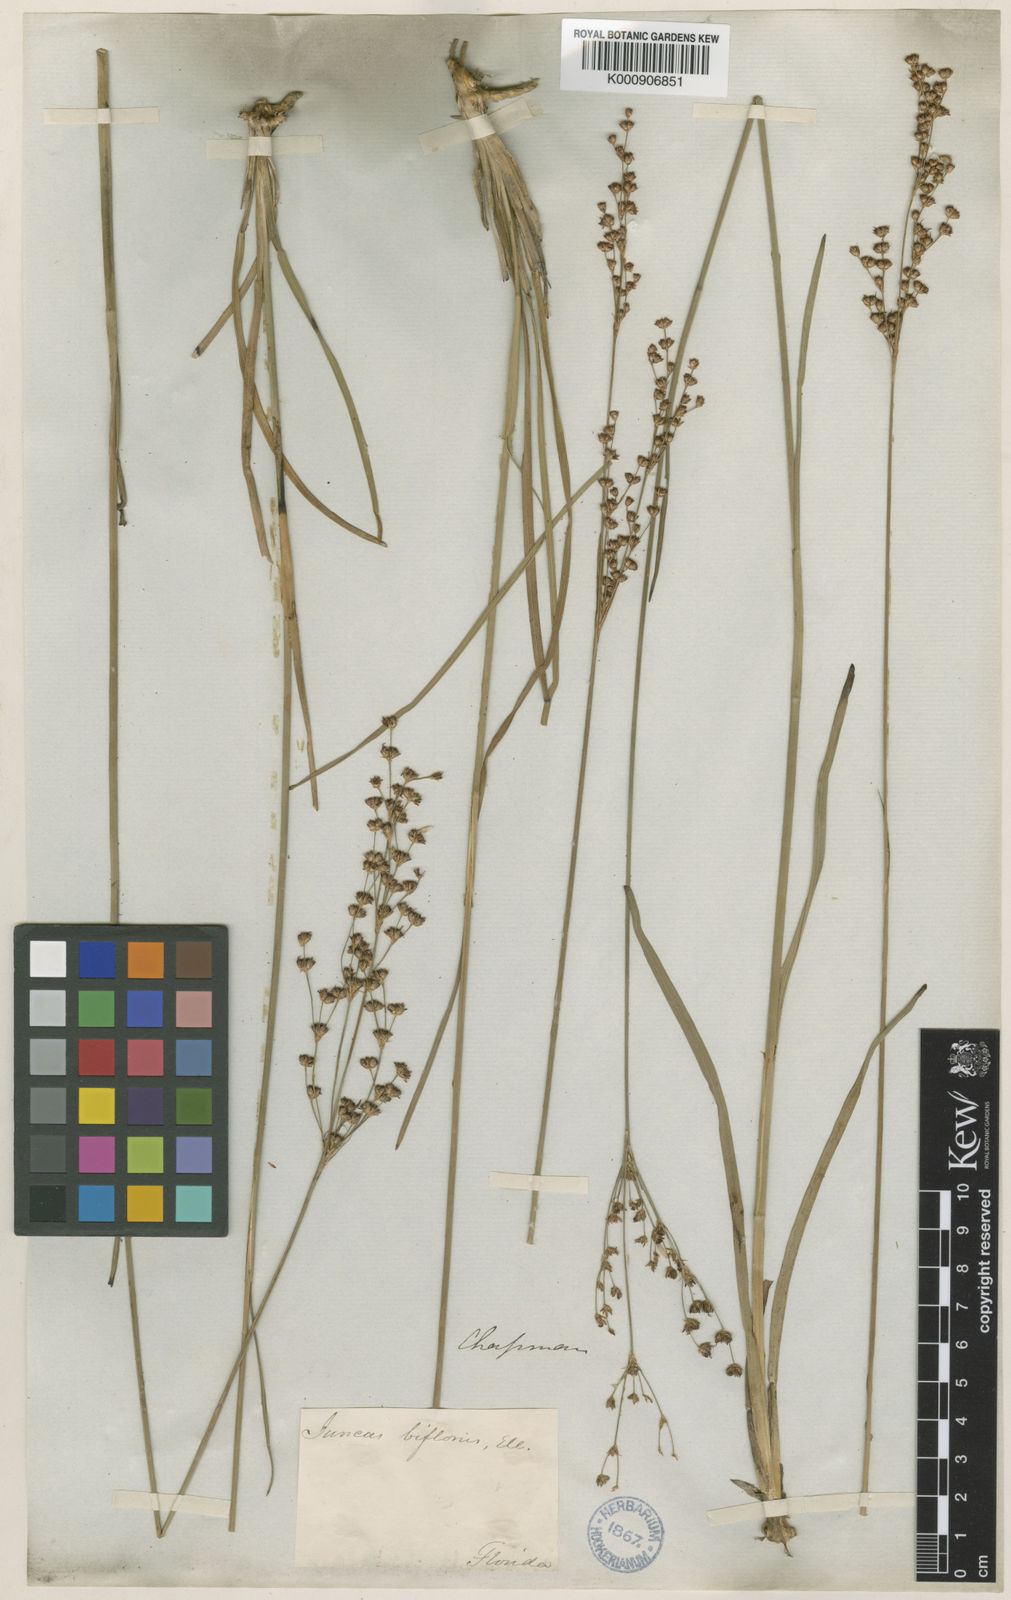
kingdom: Plantae
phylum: Tracheophyta
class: Liliopsida
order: Poales
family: Juncaceae
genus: Juncus
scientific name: Juncus marginatus
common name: Grass-leaf rush
